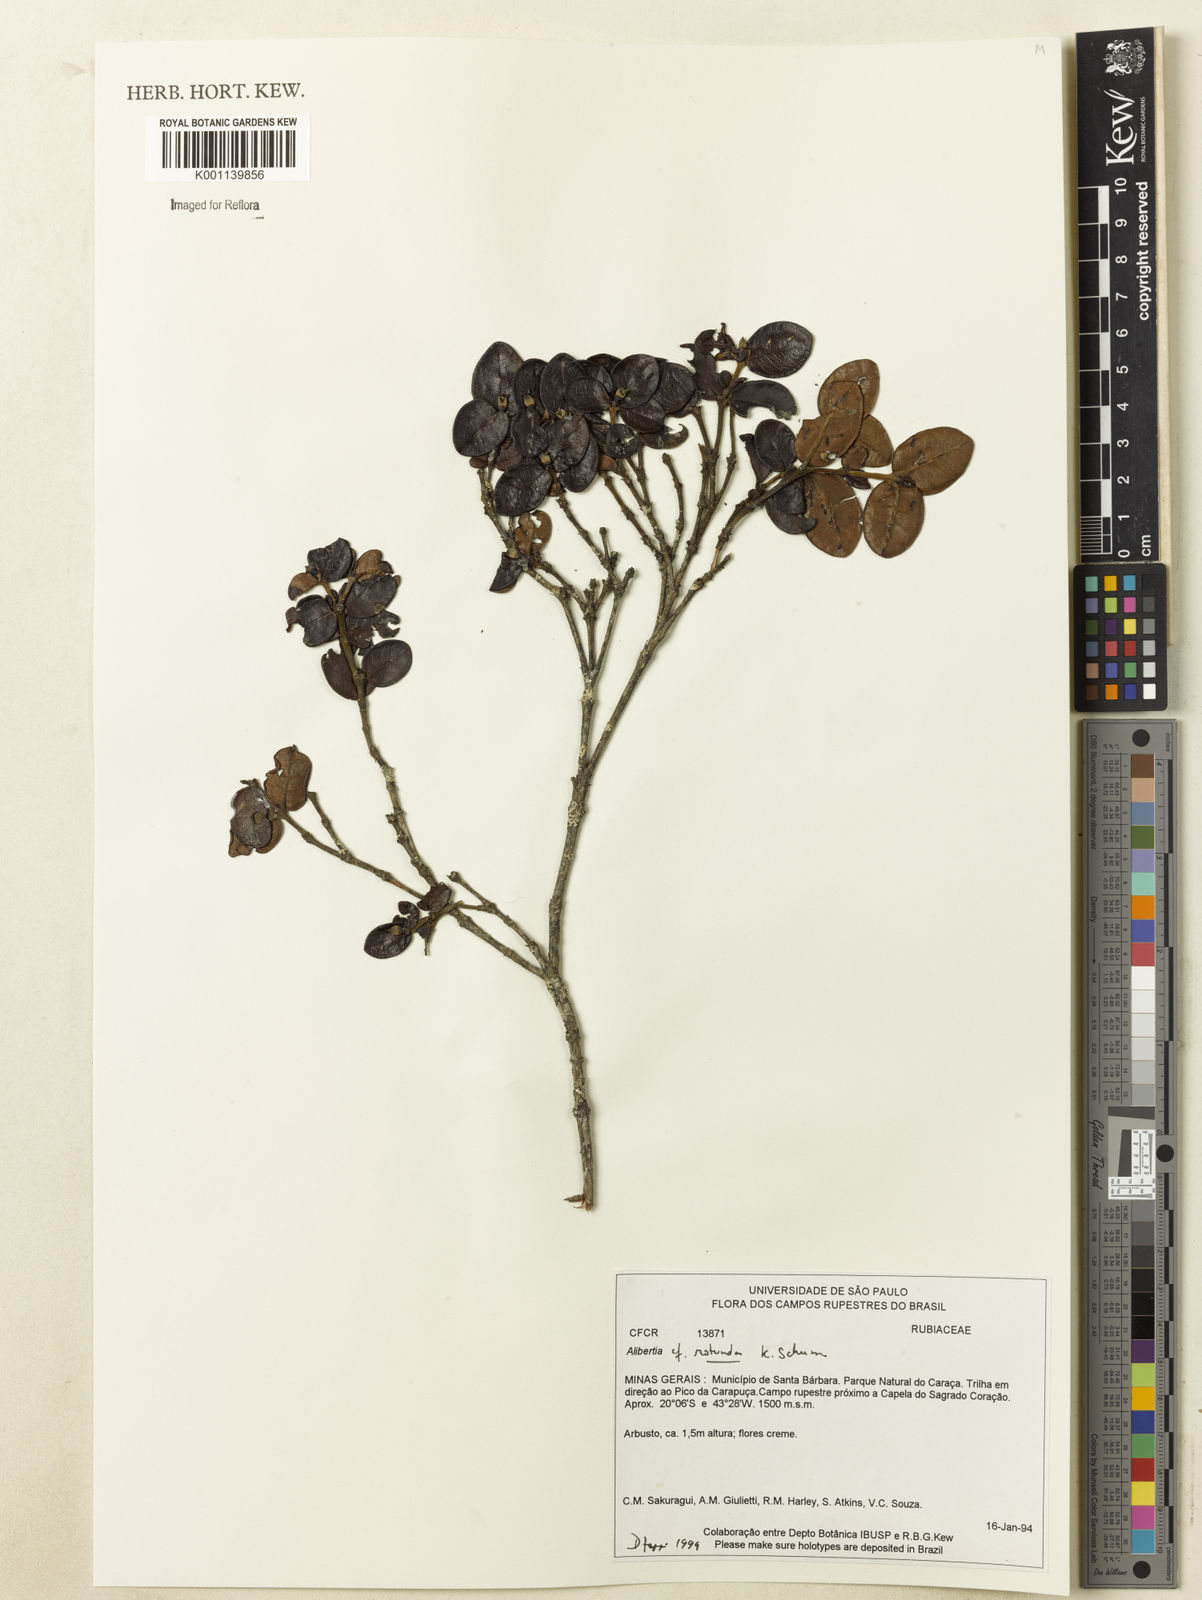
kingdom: Plantae
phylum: Tracheophyta
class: Magnoliopsida
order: Gentianales
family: Rubiaceae
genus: Cordiera
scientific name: Cordiera concolor
